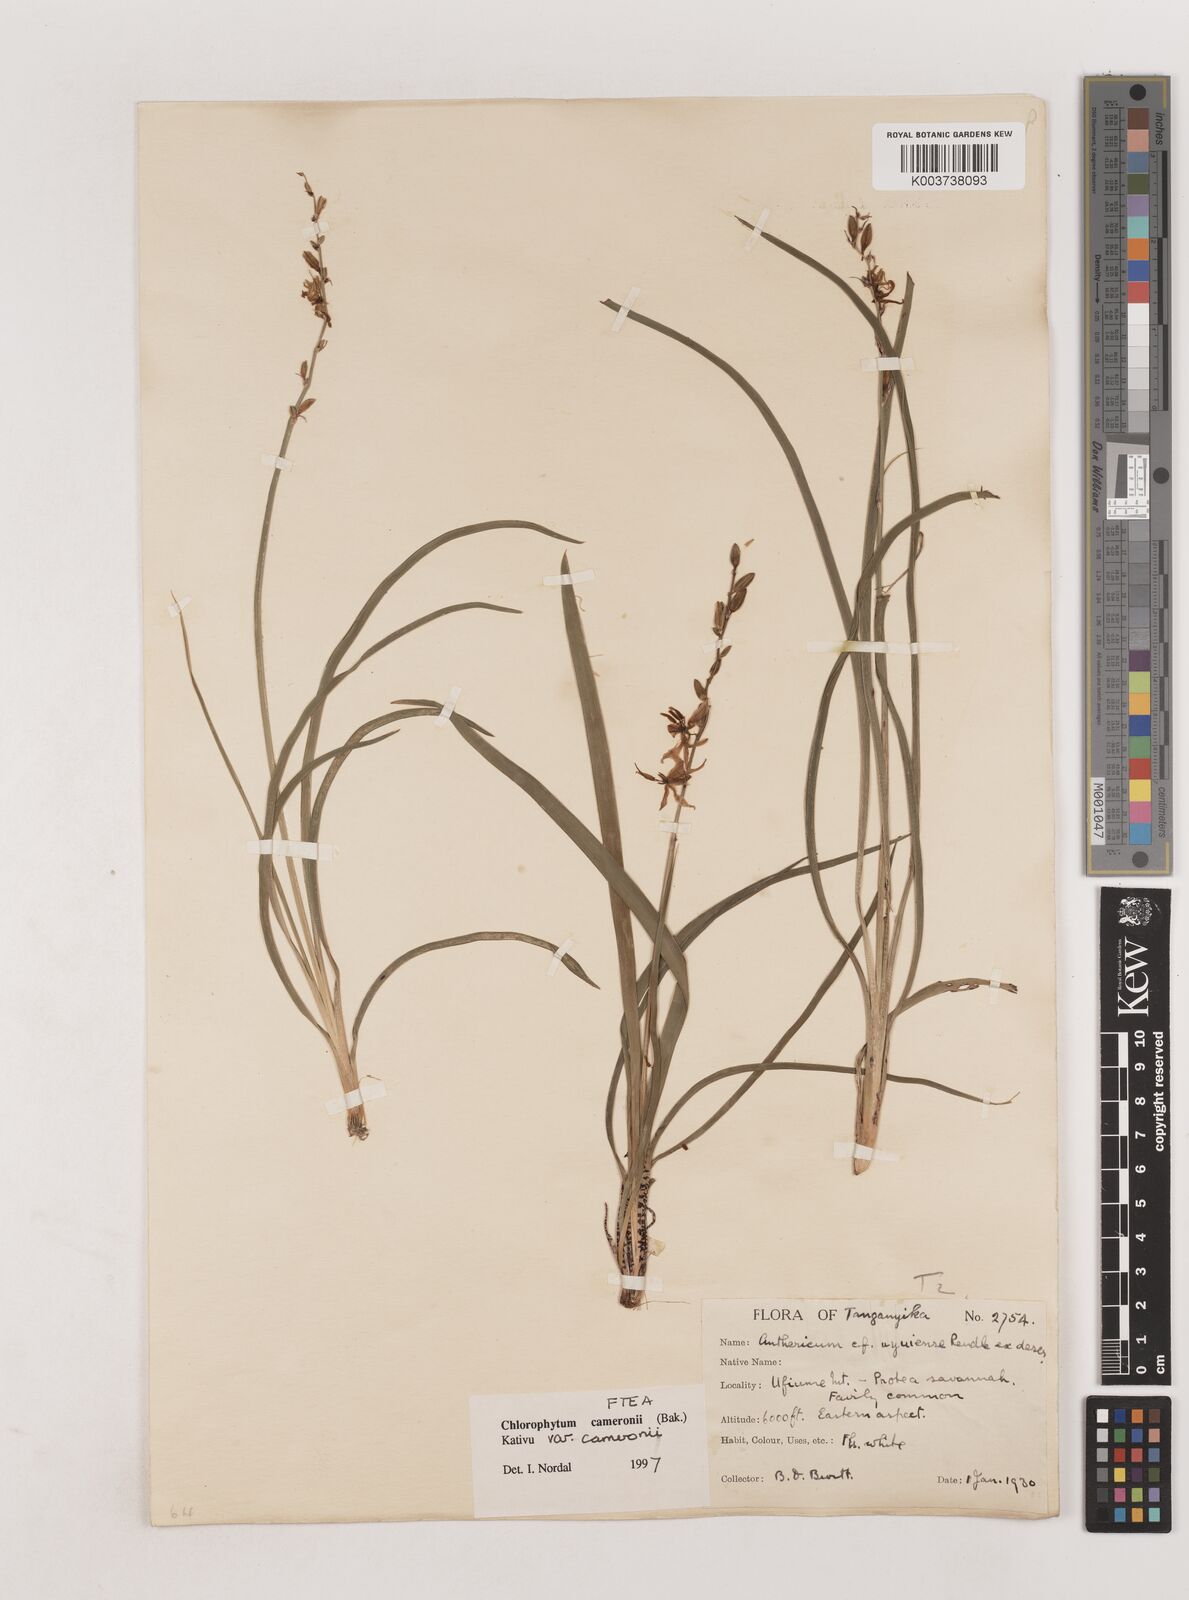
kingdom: Plantae
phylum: Tracheophyta
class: Liliopsida
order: Asparagales
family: Asparagaceae
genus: Chlorophytum
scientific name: Chlorophytum cameronii
